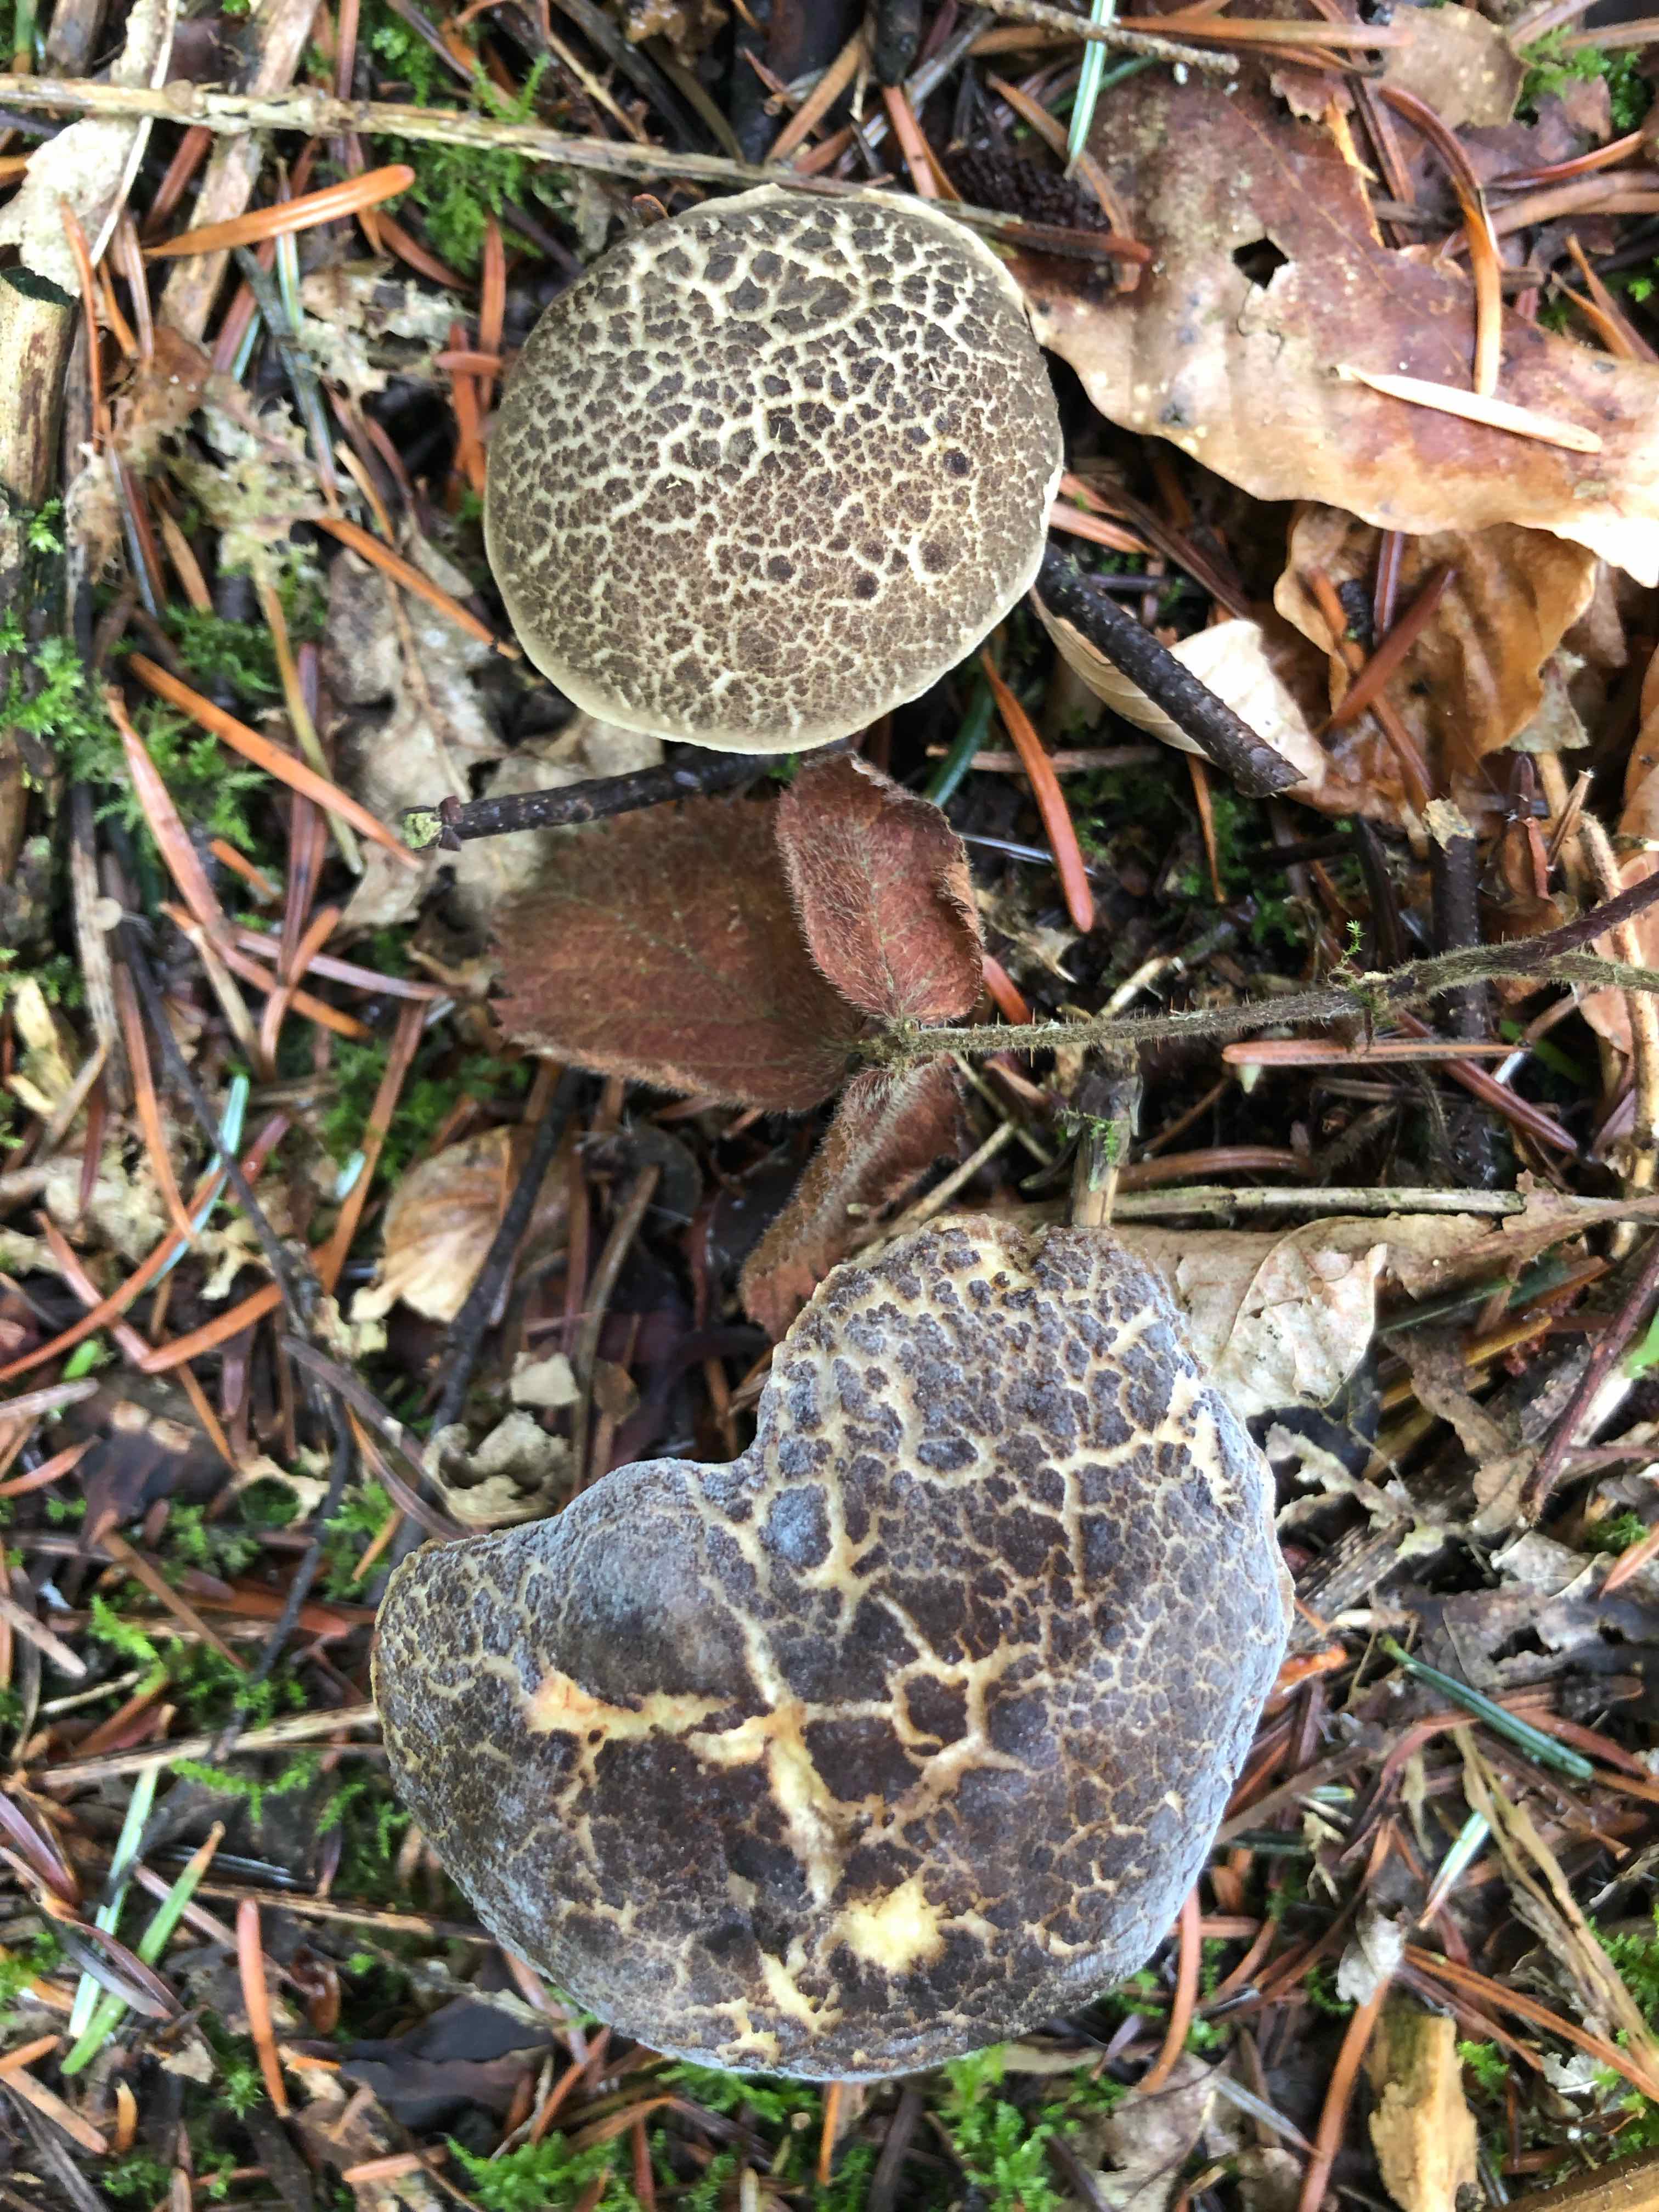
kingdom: Fungi
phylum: Basidiomycota
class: Agaricomycetes
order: Boletales
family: Boletaceae
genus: Xerocomellus
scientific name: Xerocomellus
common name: dværgrørhat
